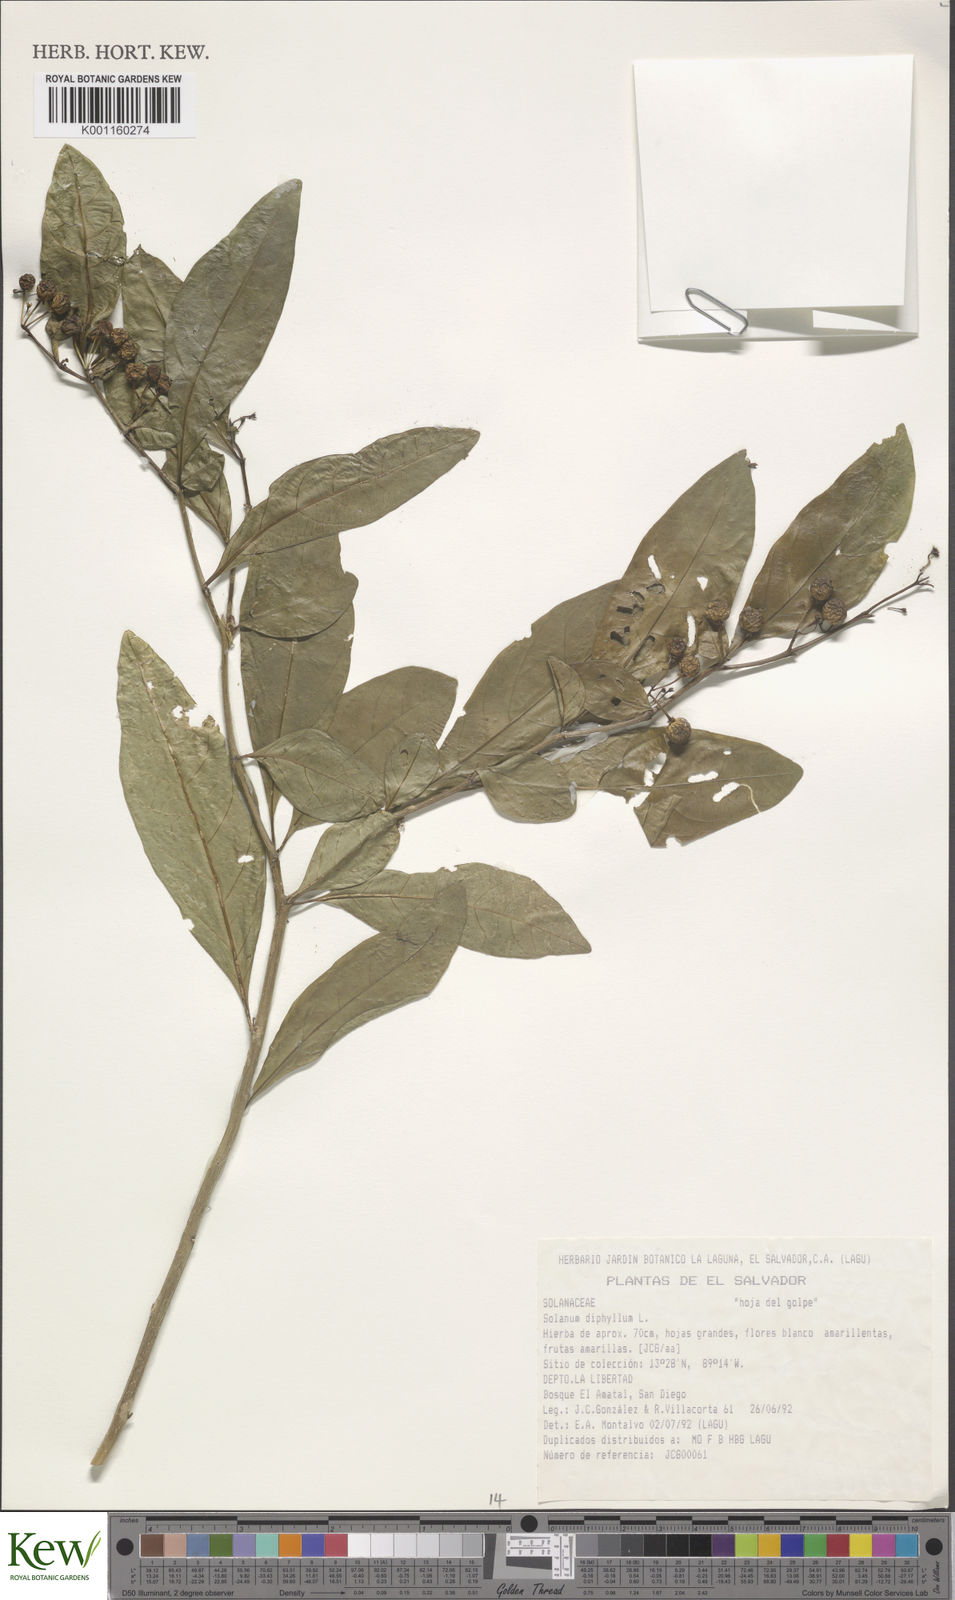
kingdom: Plantae
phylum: Tracheophyta
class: Magnoliopsida
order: Solanales
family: Solanaceae
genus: Solanum
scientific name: Solanum diphyllum
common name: Twoleaf nightshade
